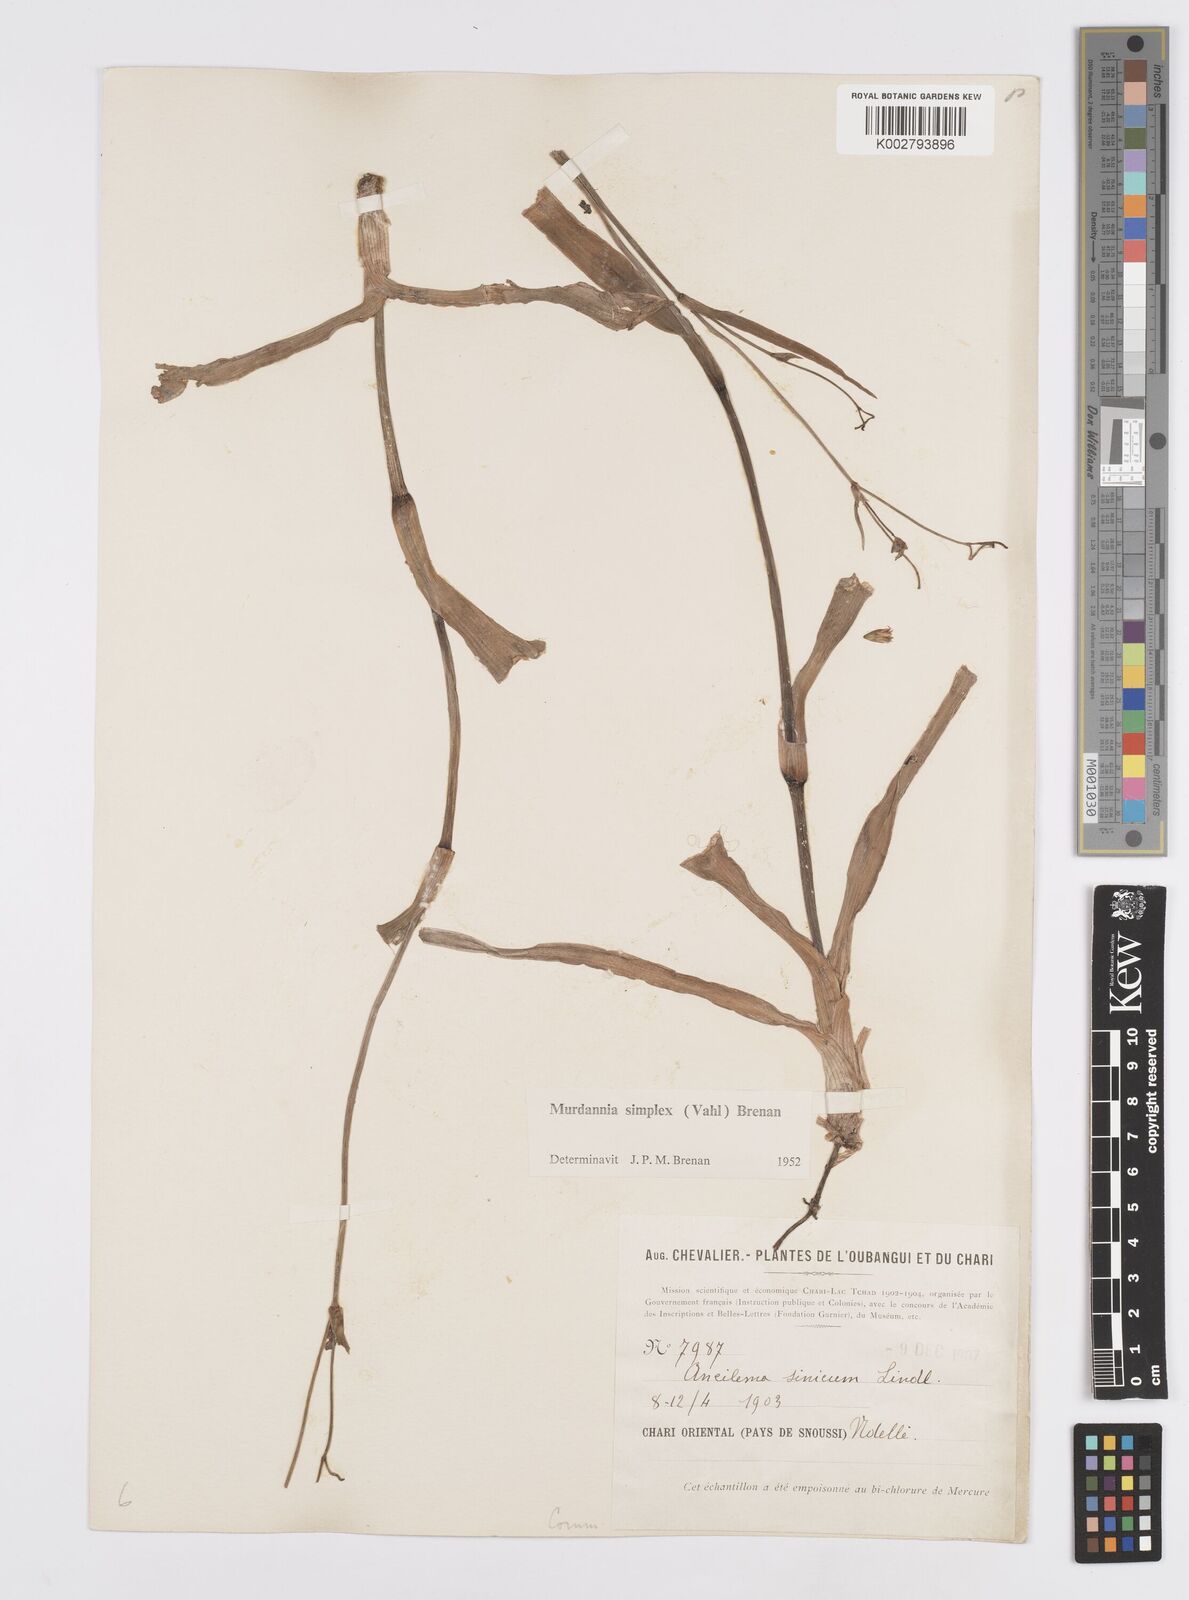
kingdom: Plantae
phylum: Tracheophyta
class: Liliopsida
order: Commelinales
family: Commelinaceae
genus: Murdannia
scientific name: Murdannia simplex
